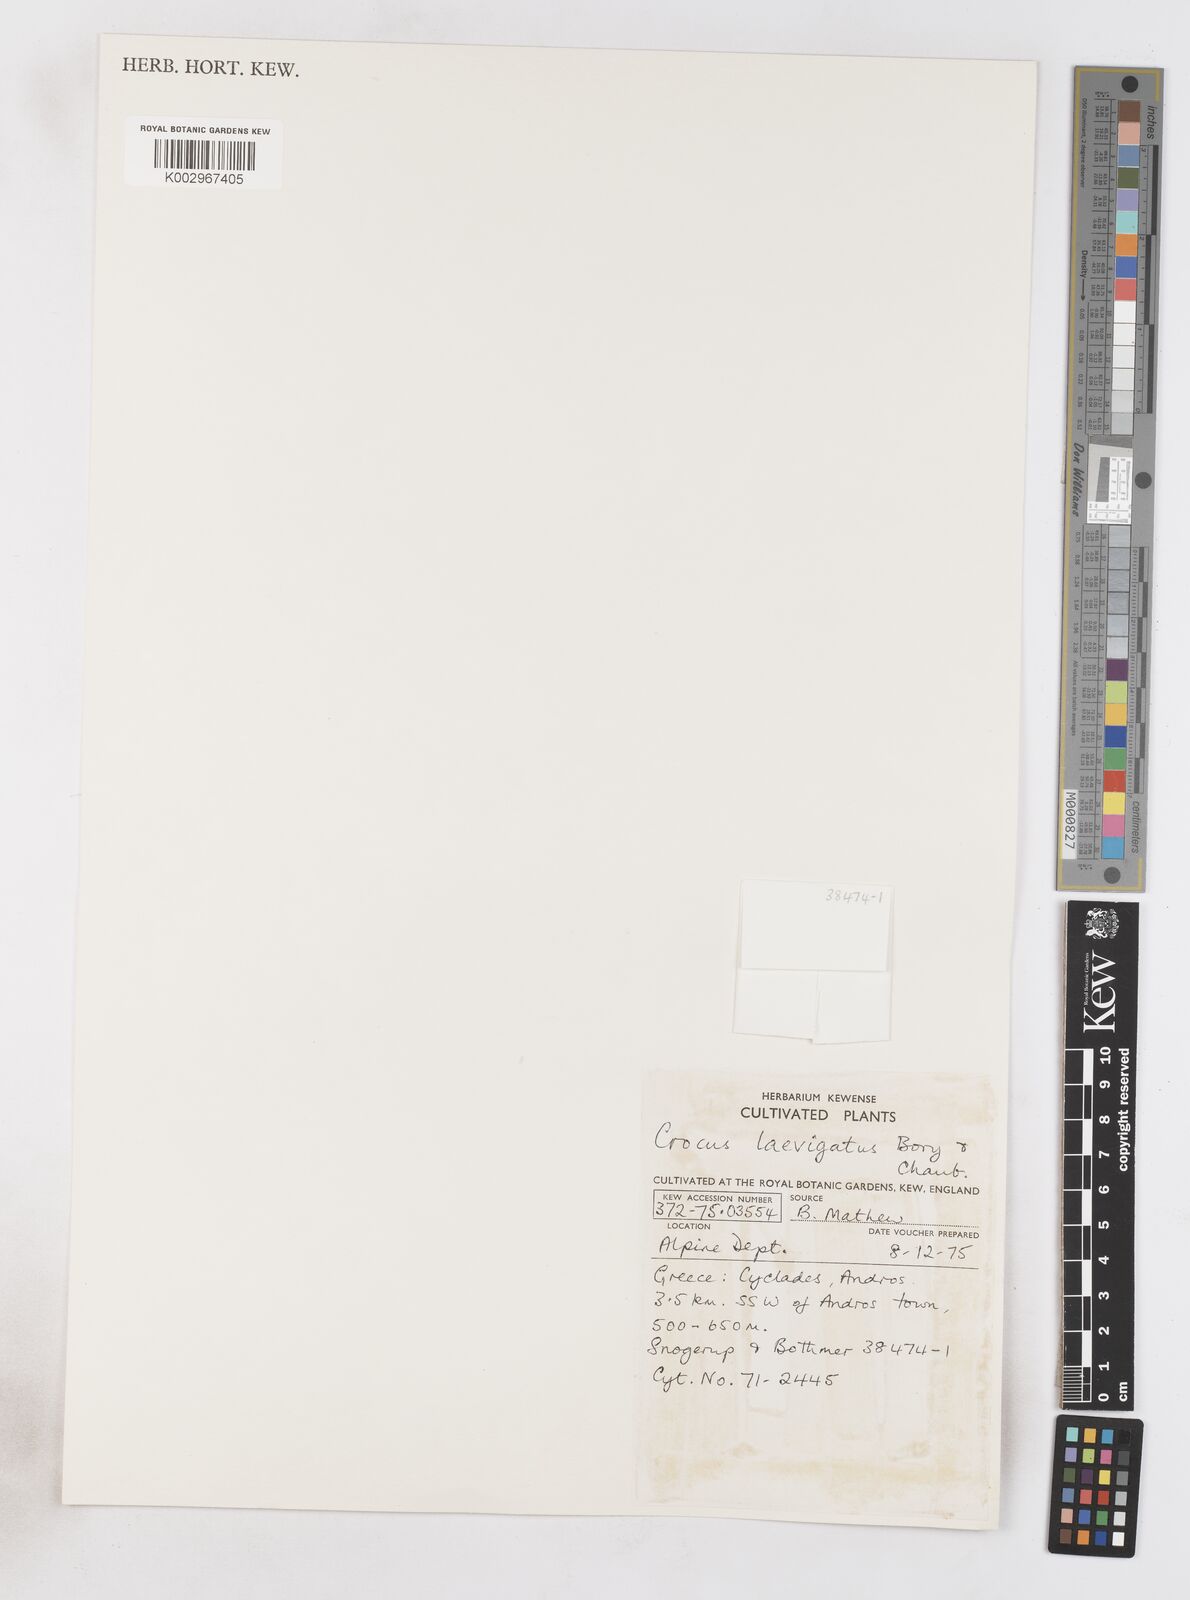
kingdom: Plantae
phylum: Tracheophyta
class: Liliopsida
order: Asparagales
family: Iridaceae
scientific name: Iridaceae
